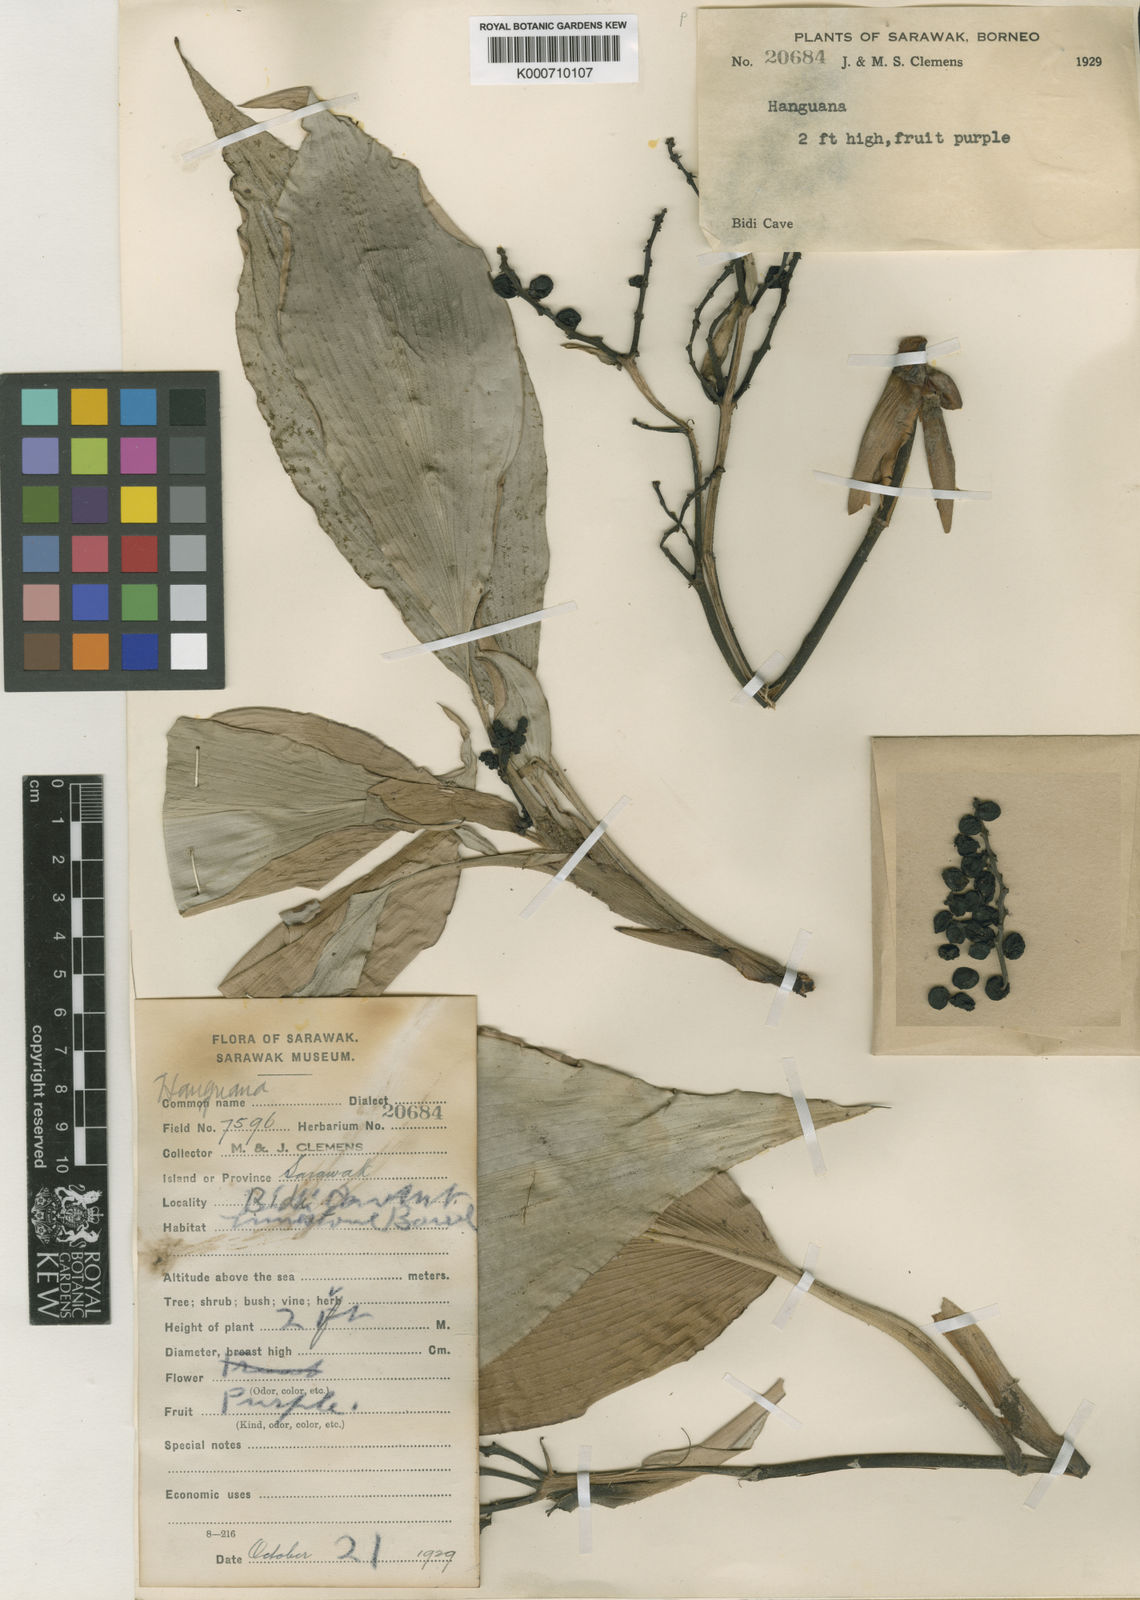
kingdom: Plantae
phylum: Tracheophyta
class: Liliopsida
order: Commelinales
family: Hanguanaceae
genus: Hanguana
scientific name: Hanguana malayana
